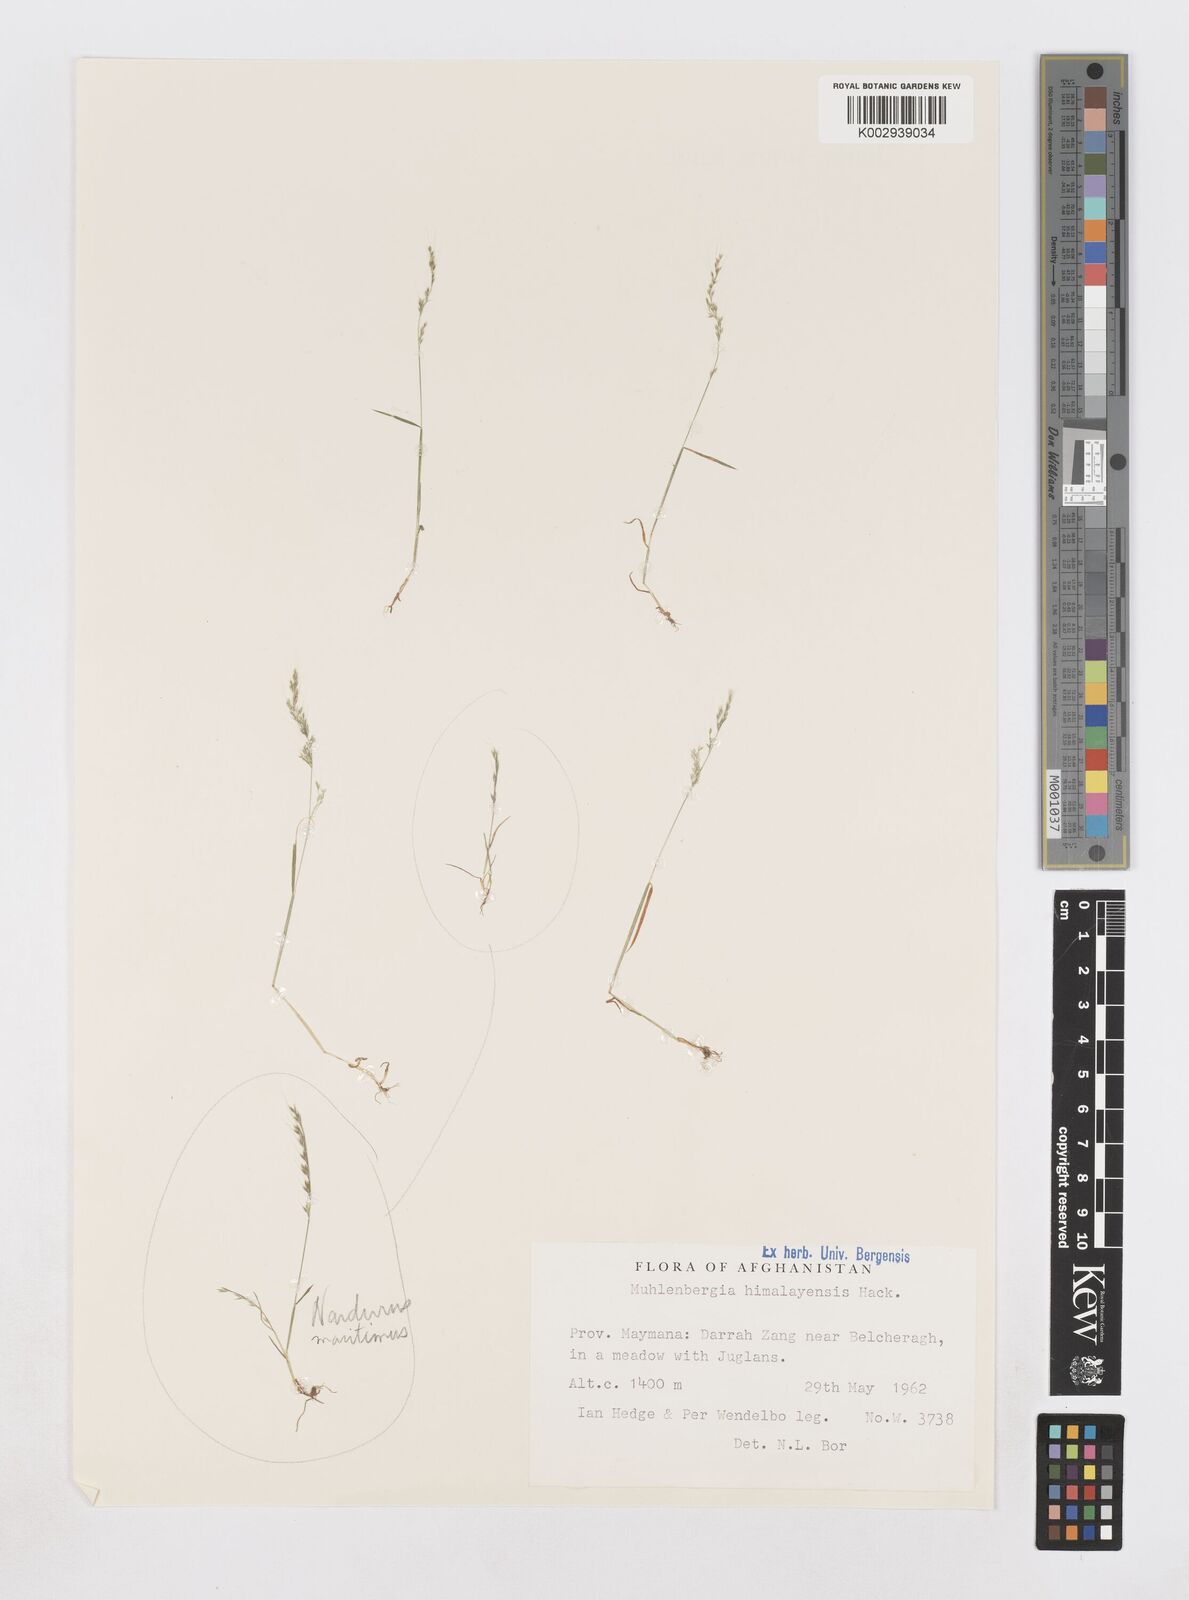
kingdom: Plantae
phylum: Tracheophyta
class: Liliopsida
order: Poales
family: Poaceae
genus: Muhlenbergia
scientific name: Muhlenbergia himalayensis
